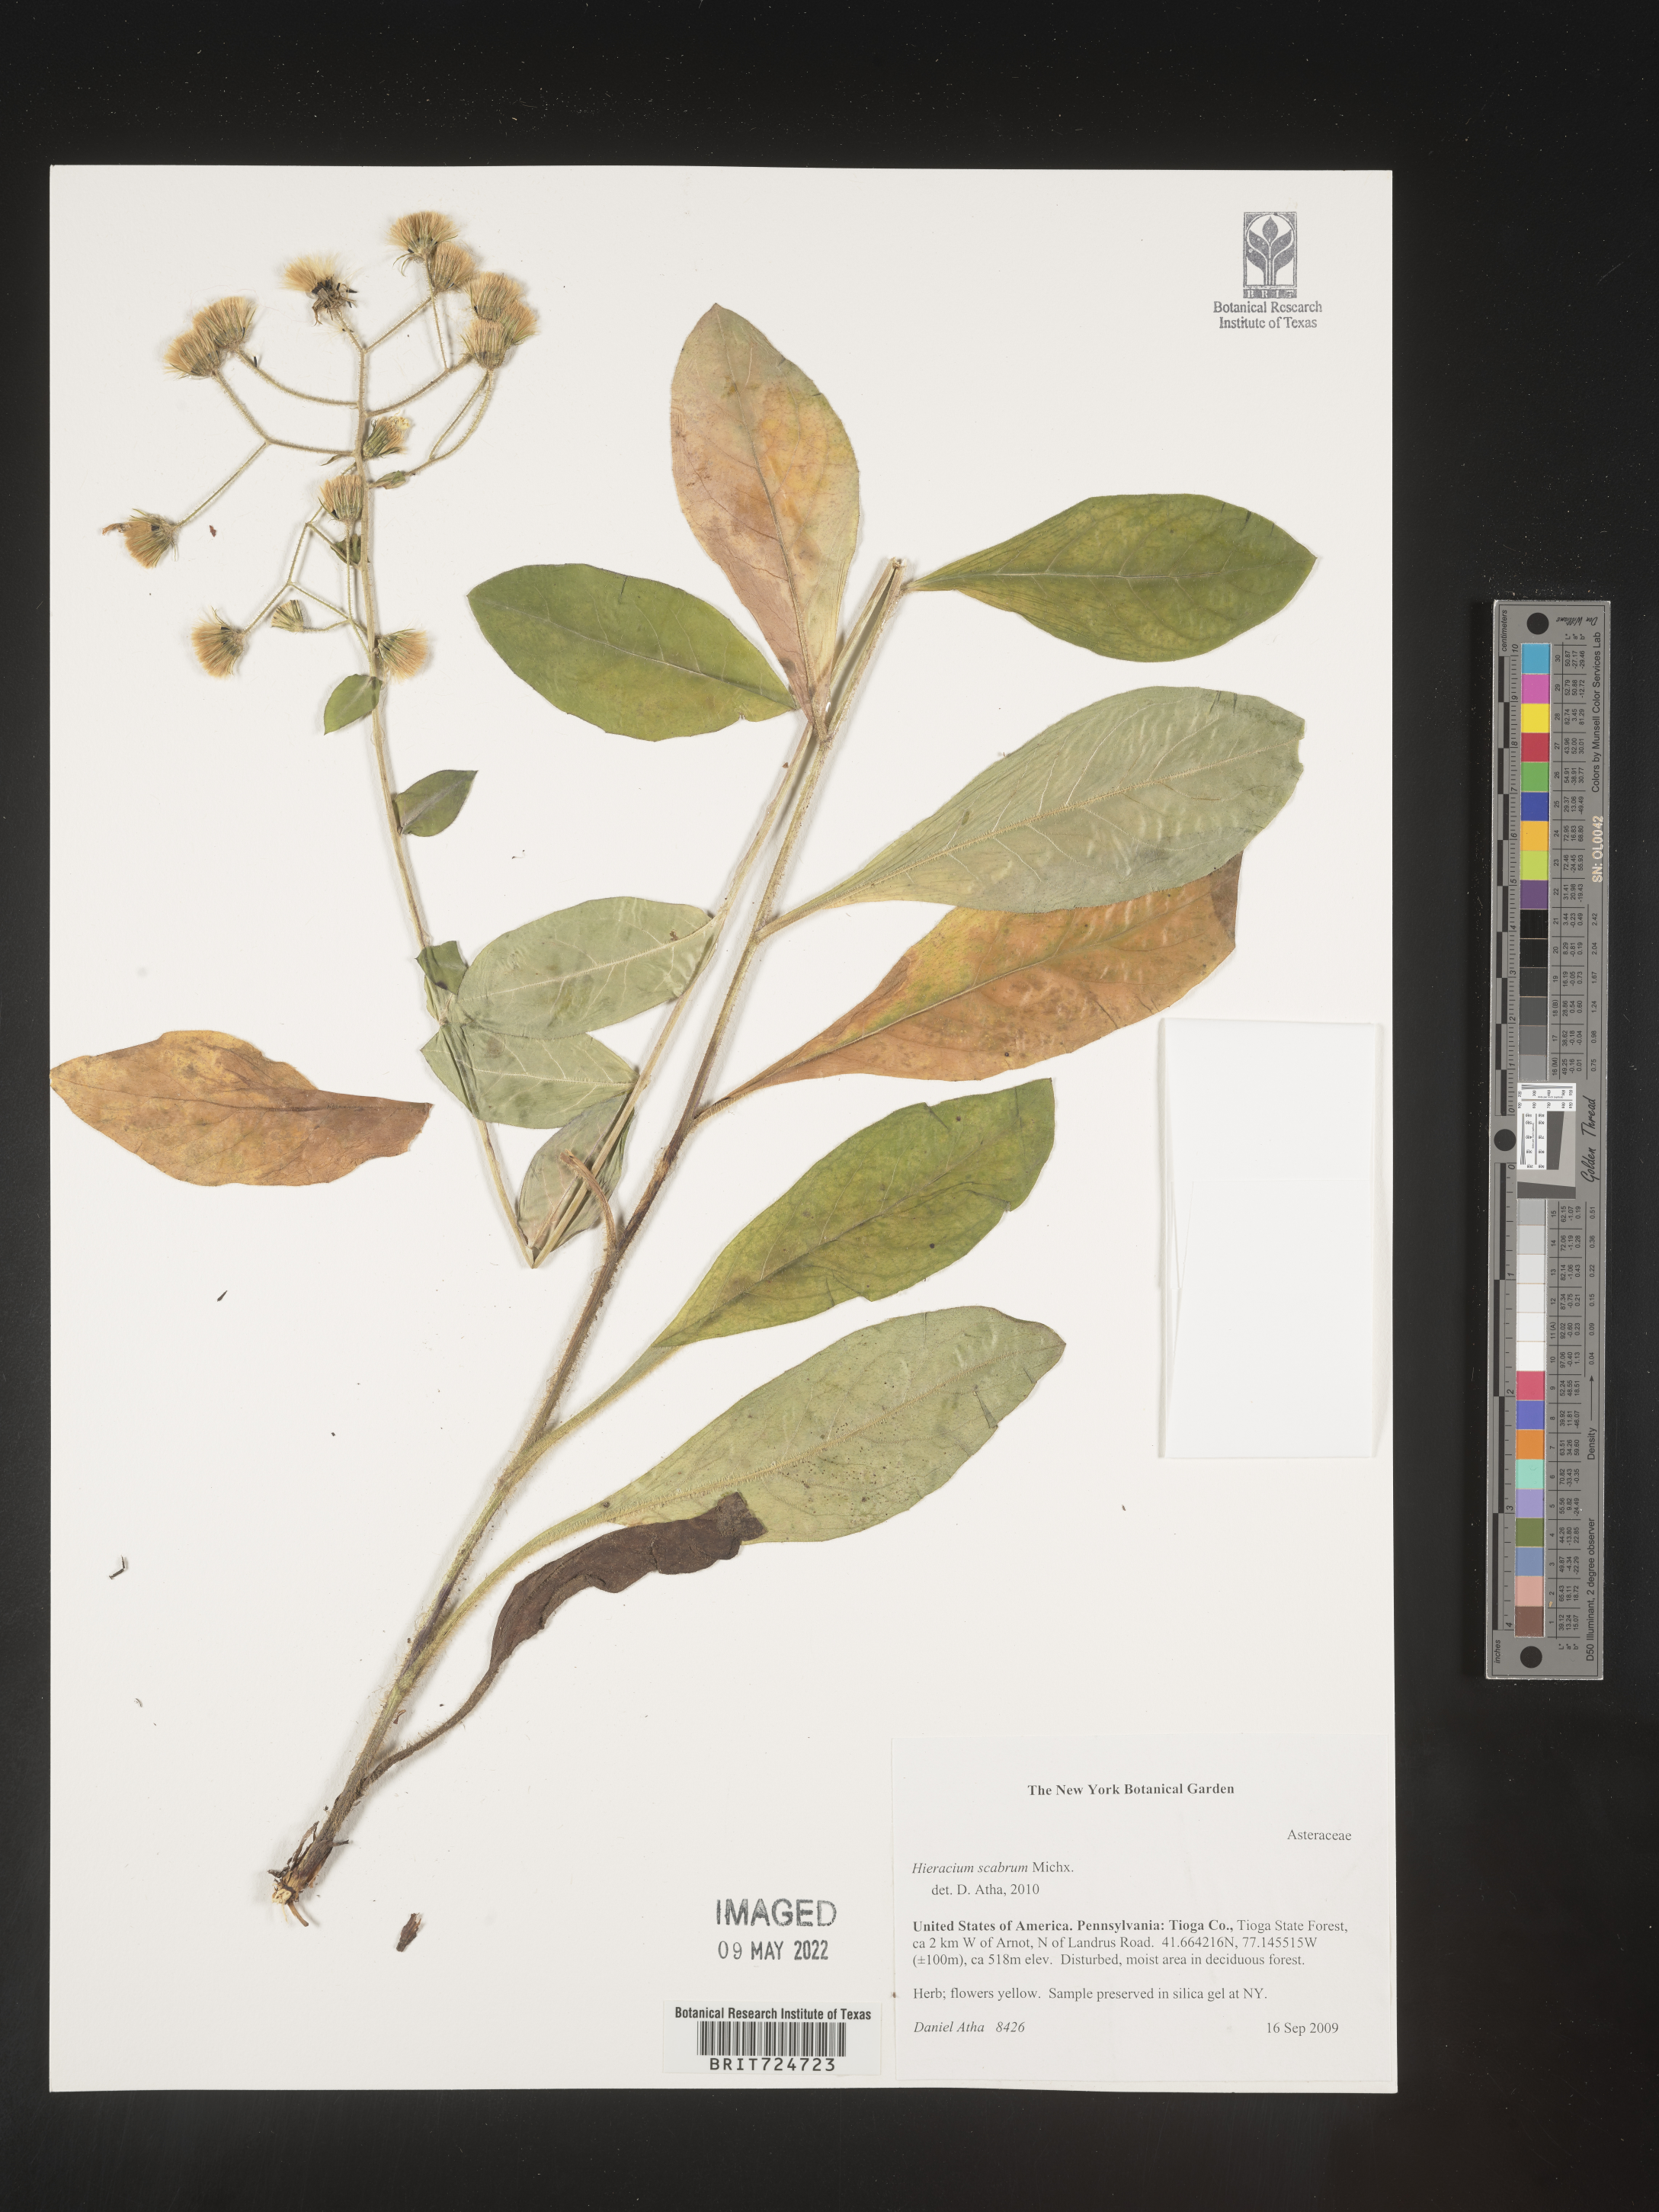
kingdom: Plantae
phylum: Tracheophyta
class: Magnoliopsida
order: Asterales
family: Asteraceae
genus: Hieracium
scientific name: Hieracium scabrum
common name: Rough hawkweed
